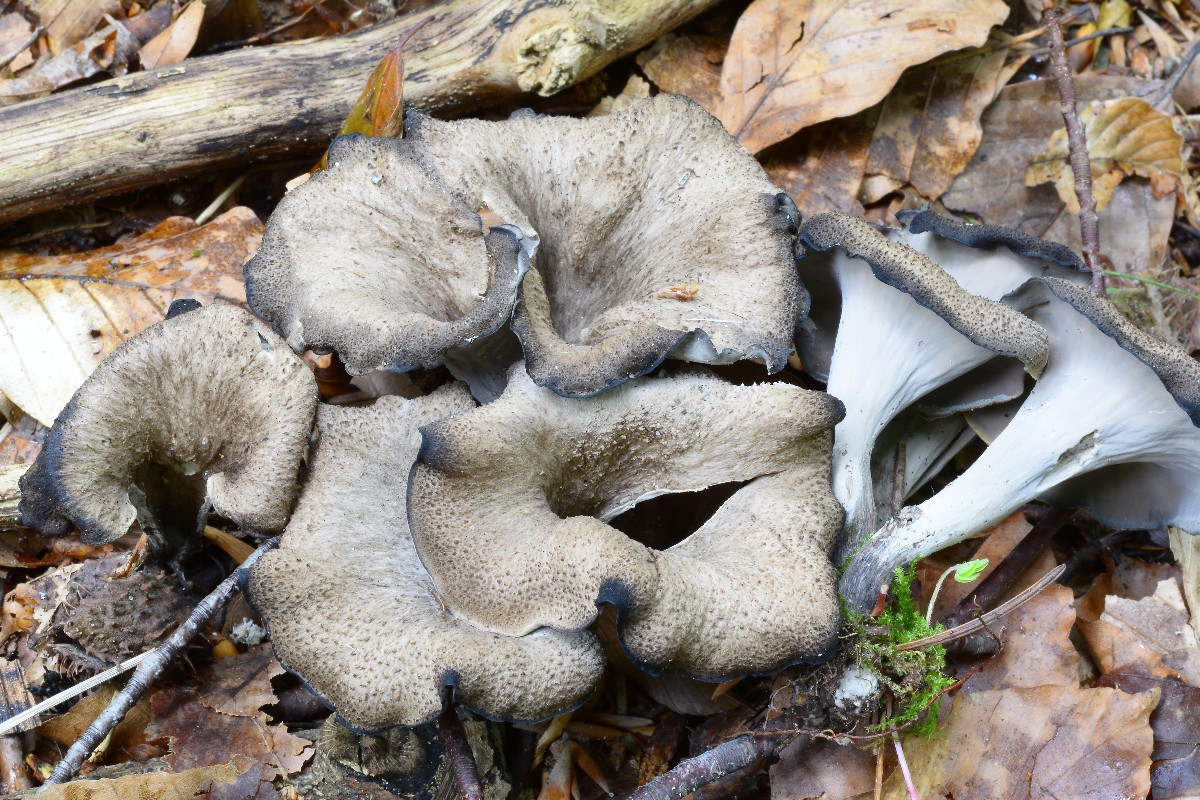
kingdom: Fungi
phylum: Basidiomycota
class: Agaricomycetes
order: Cantharellales
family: Hydnaceae
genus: Craterellus
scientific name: Craterellus cornucopioides
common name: trompetsvamp
